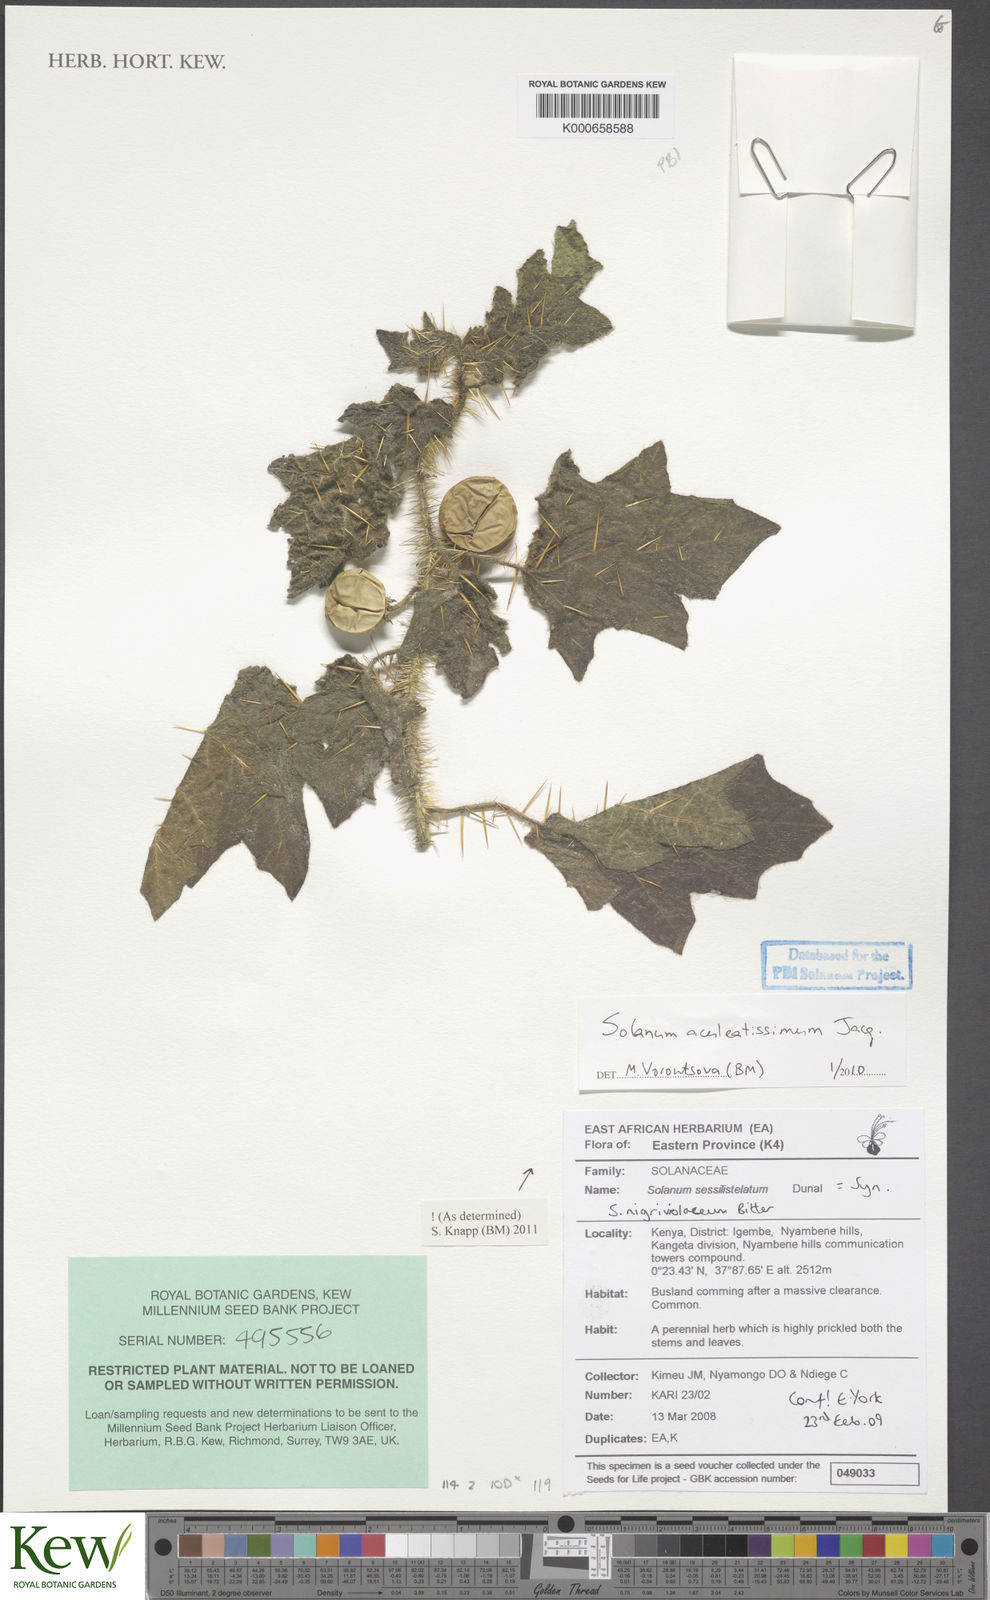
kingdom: Plantae
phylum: Tracheophyta
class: Magnoliopsida
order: Solanales
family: Solanaceae
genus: Solanum
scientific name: Solanum aculeatissimum
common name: Dutch eggplant
